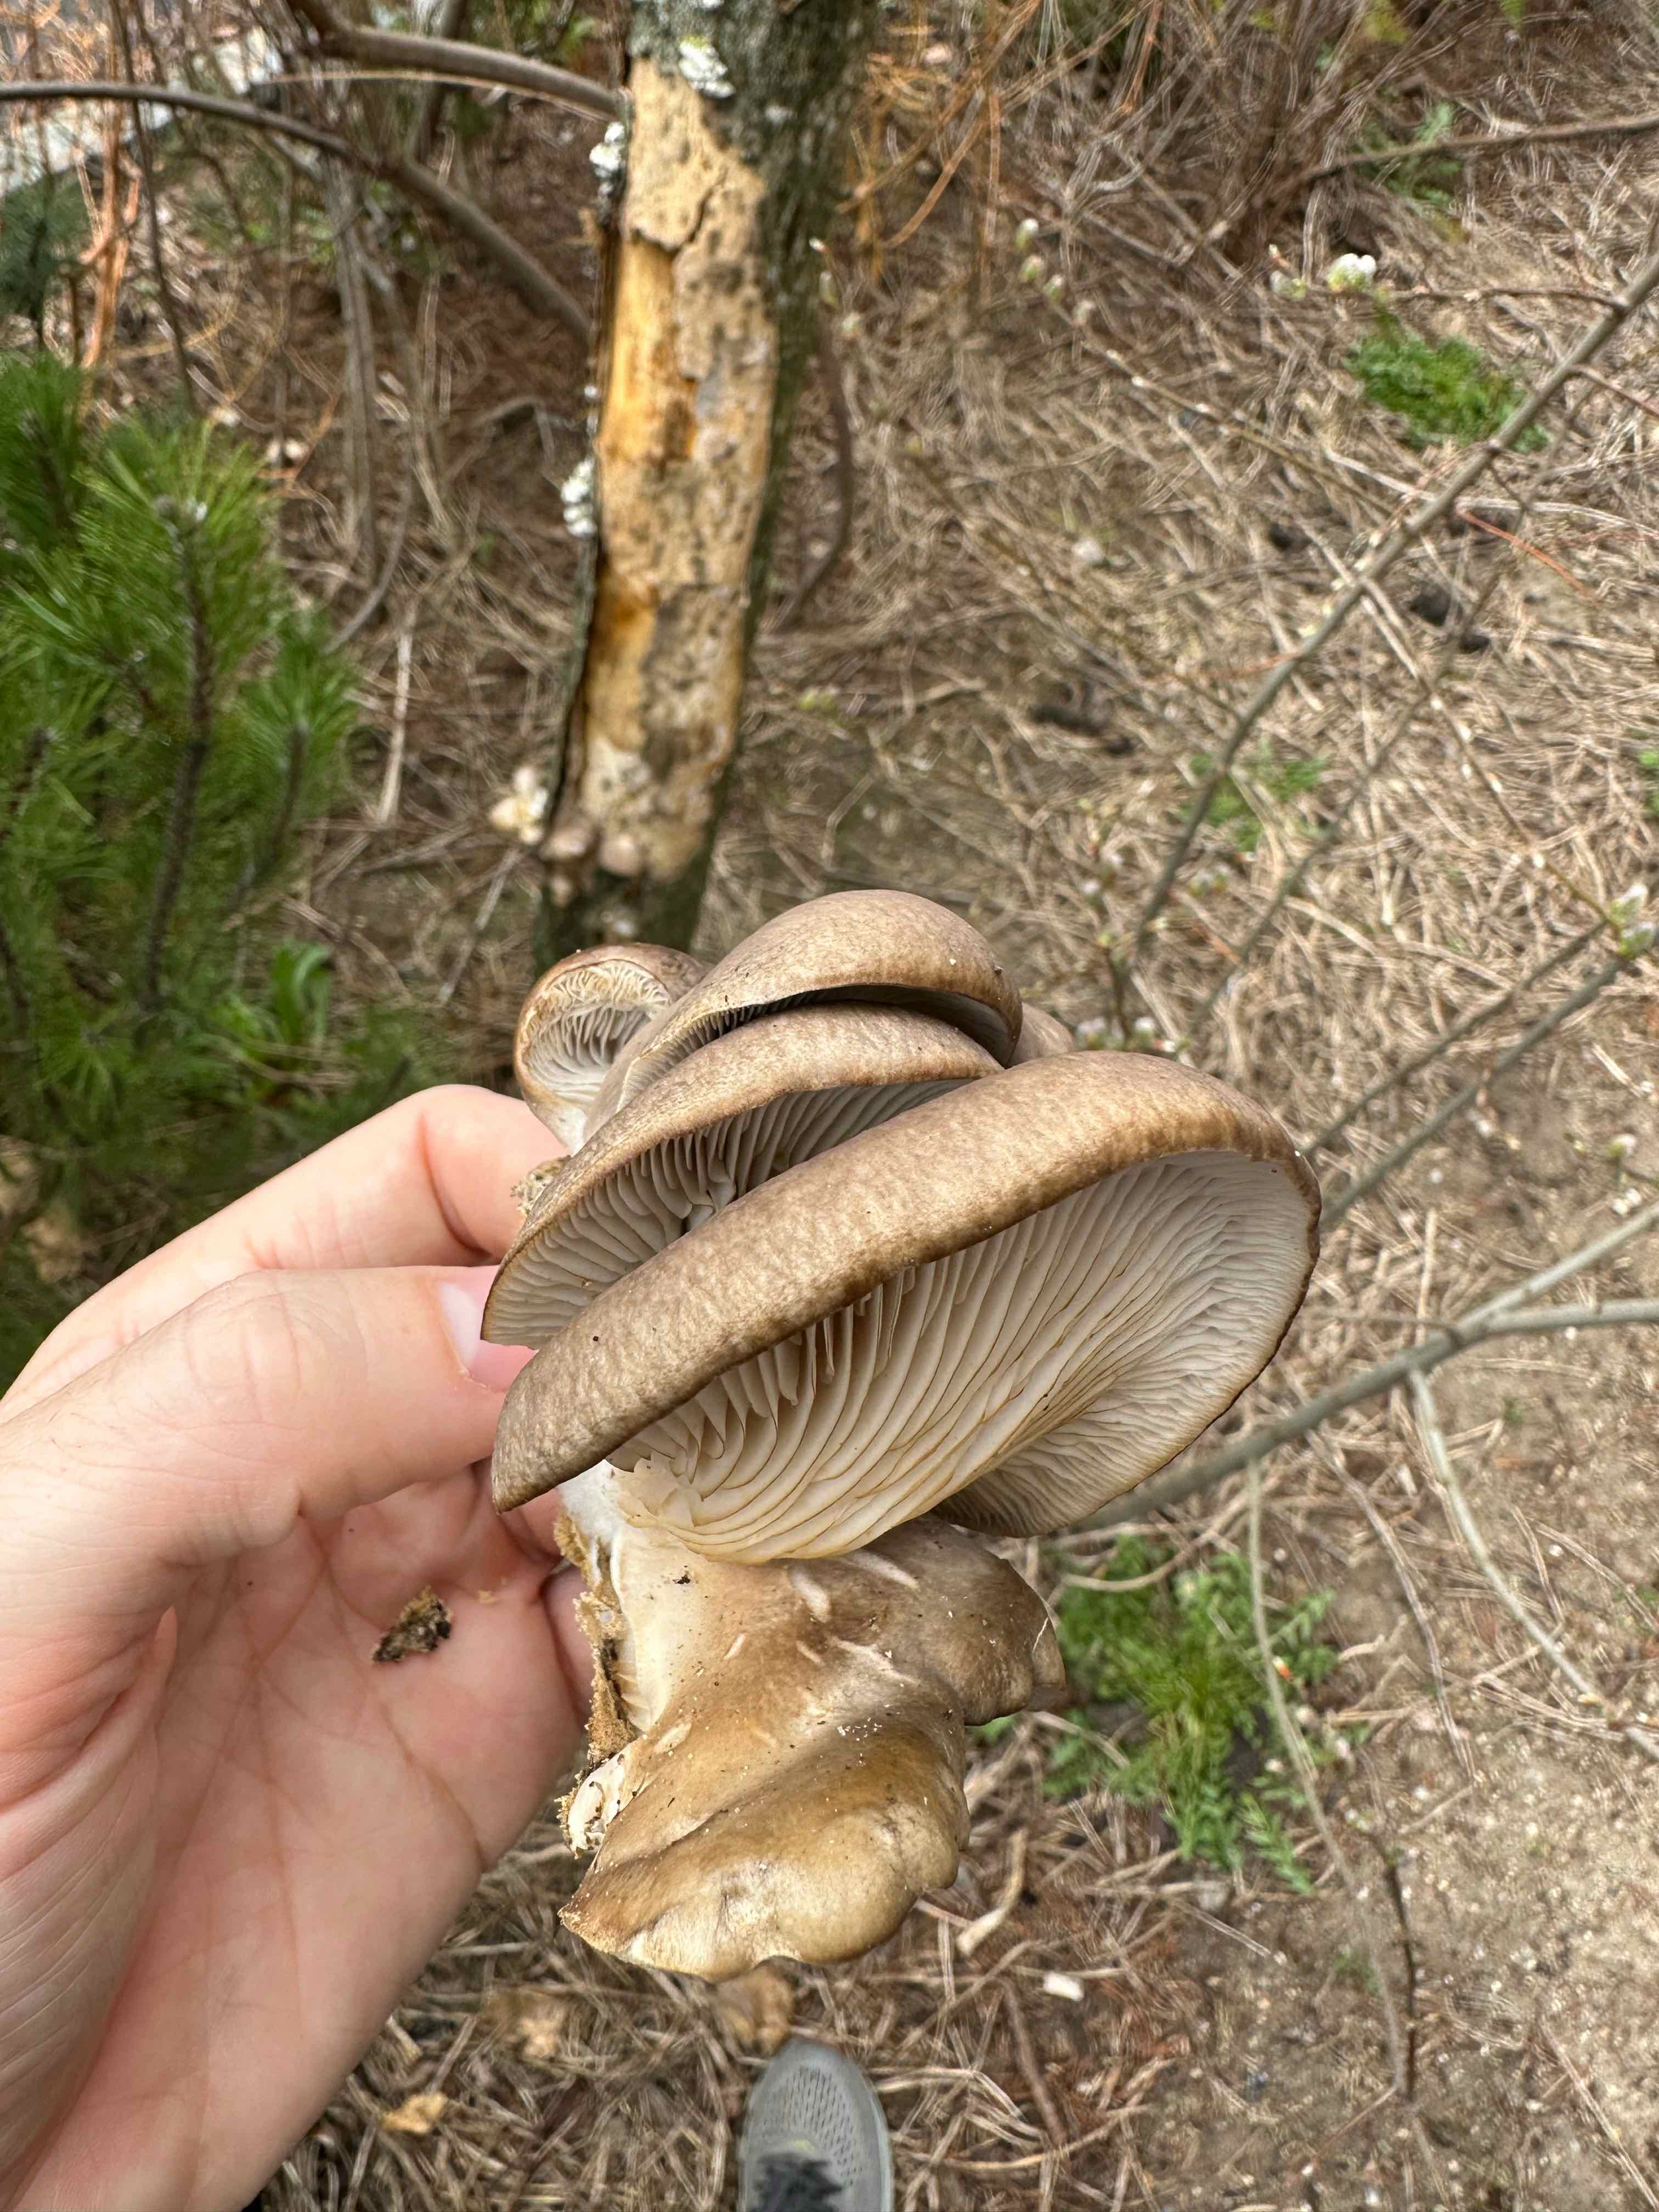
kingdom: Fungi
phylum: Basidiomycota
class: Agaricomycetes
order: Agaricales
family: Pleurotaceae
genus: Pleurotus
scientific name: Pleurotus ostreatus
